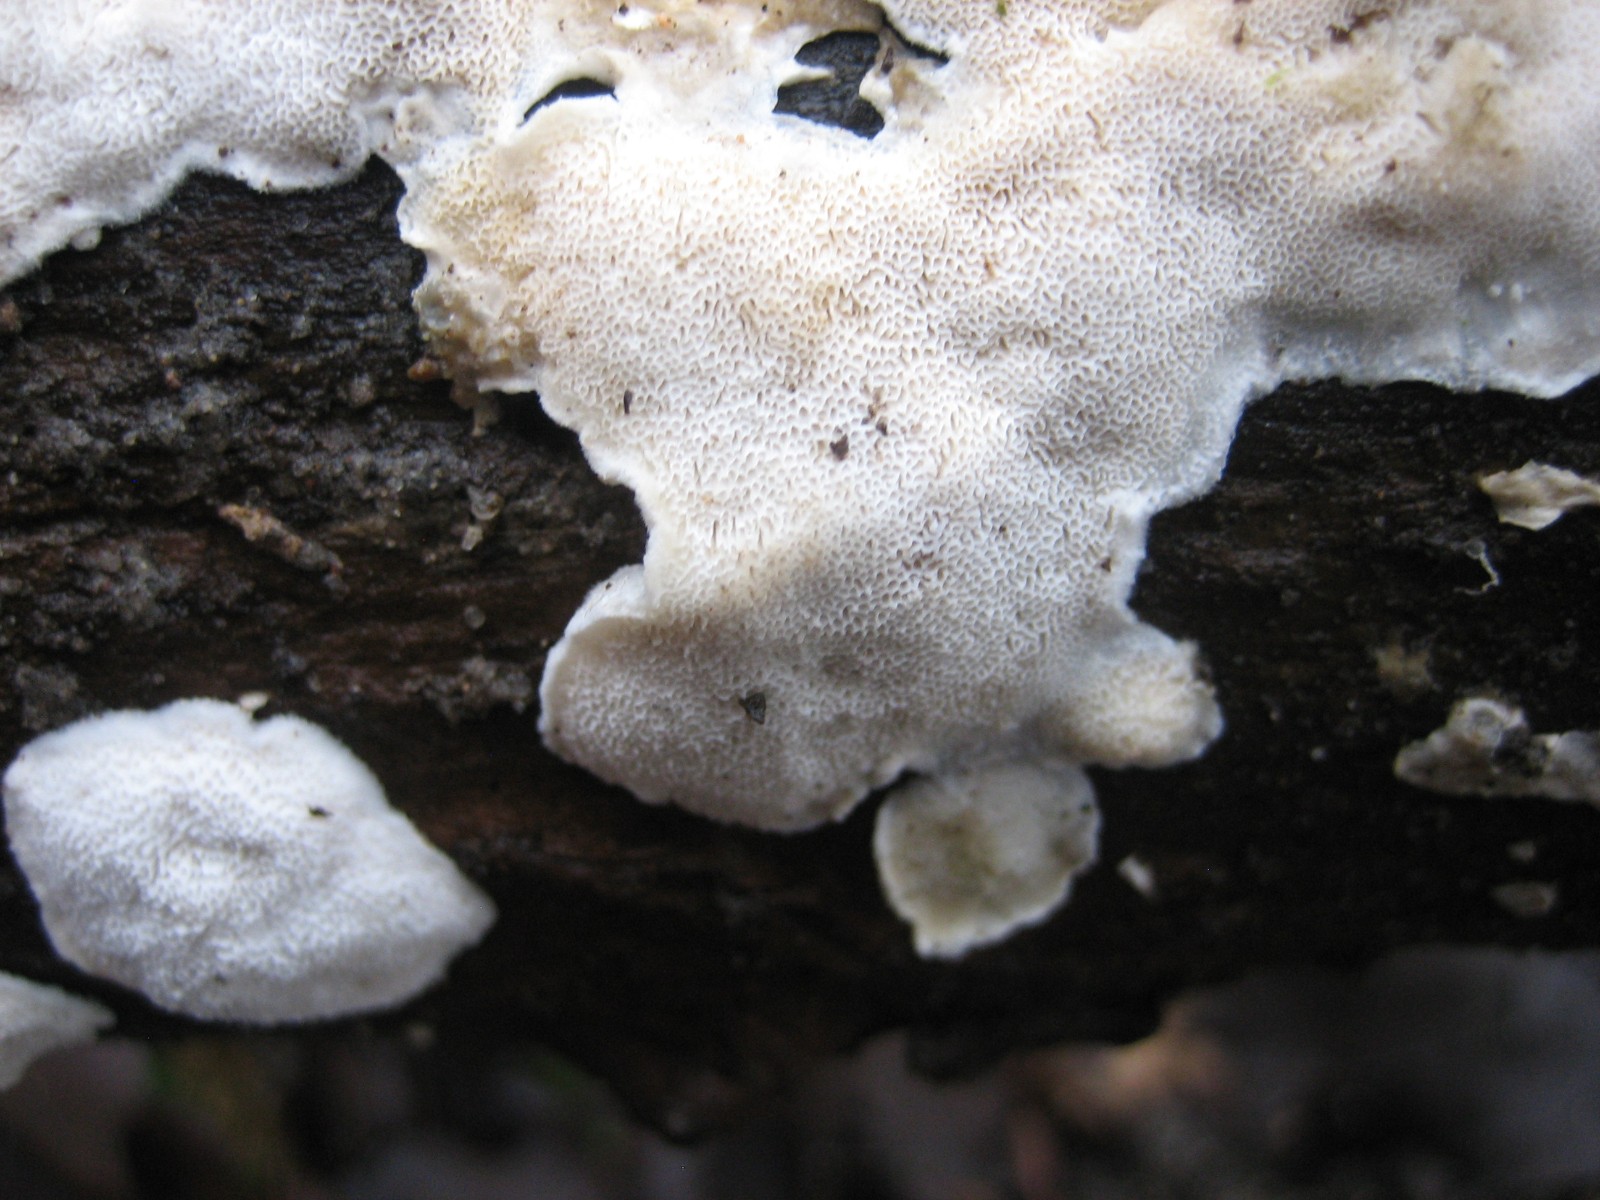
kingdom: Fungi
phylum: Basidiomycota
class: Agaricomycetes
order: Polyporales
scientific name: Polyporales
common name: poresvampordenen
